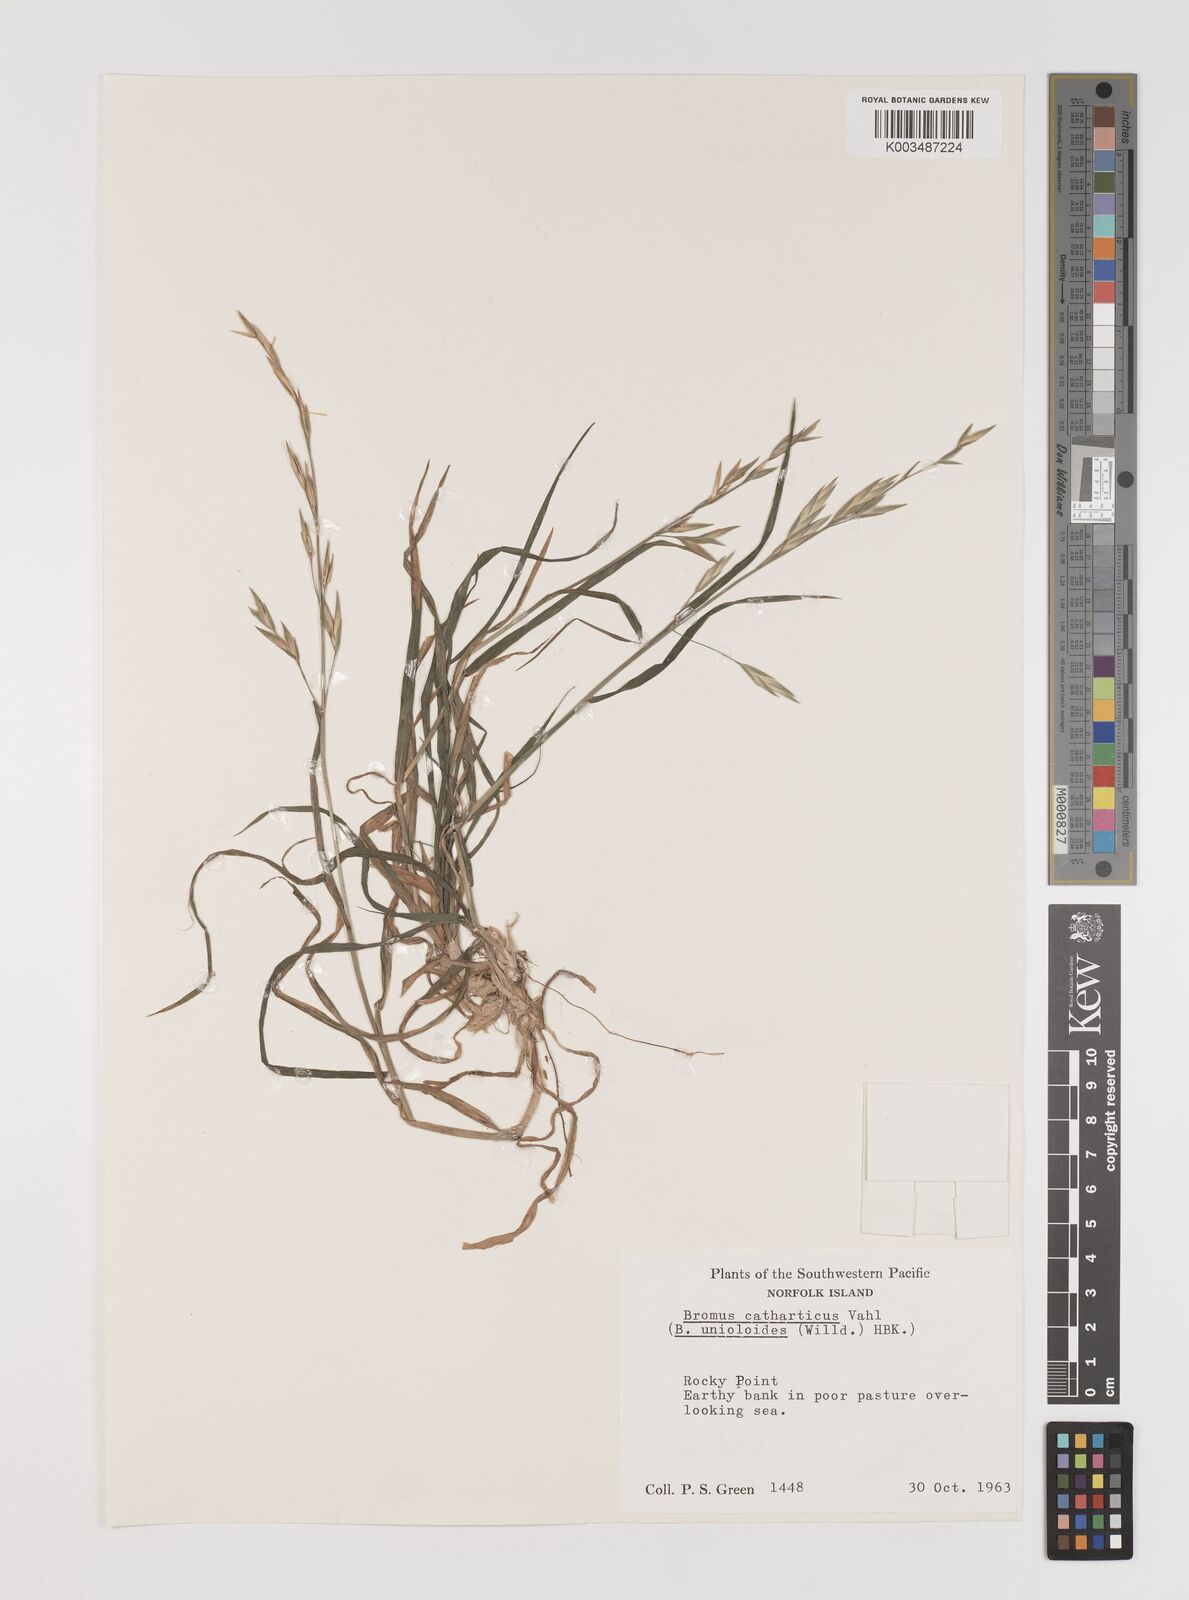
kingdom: Plantae
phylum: Tracheophyta
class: Liliopsida
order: Poales
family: Poaceae
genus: Bromus
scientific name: Bromus catharticus
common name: Rescuegrass
